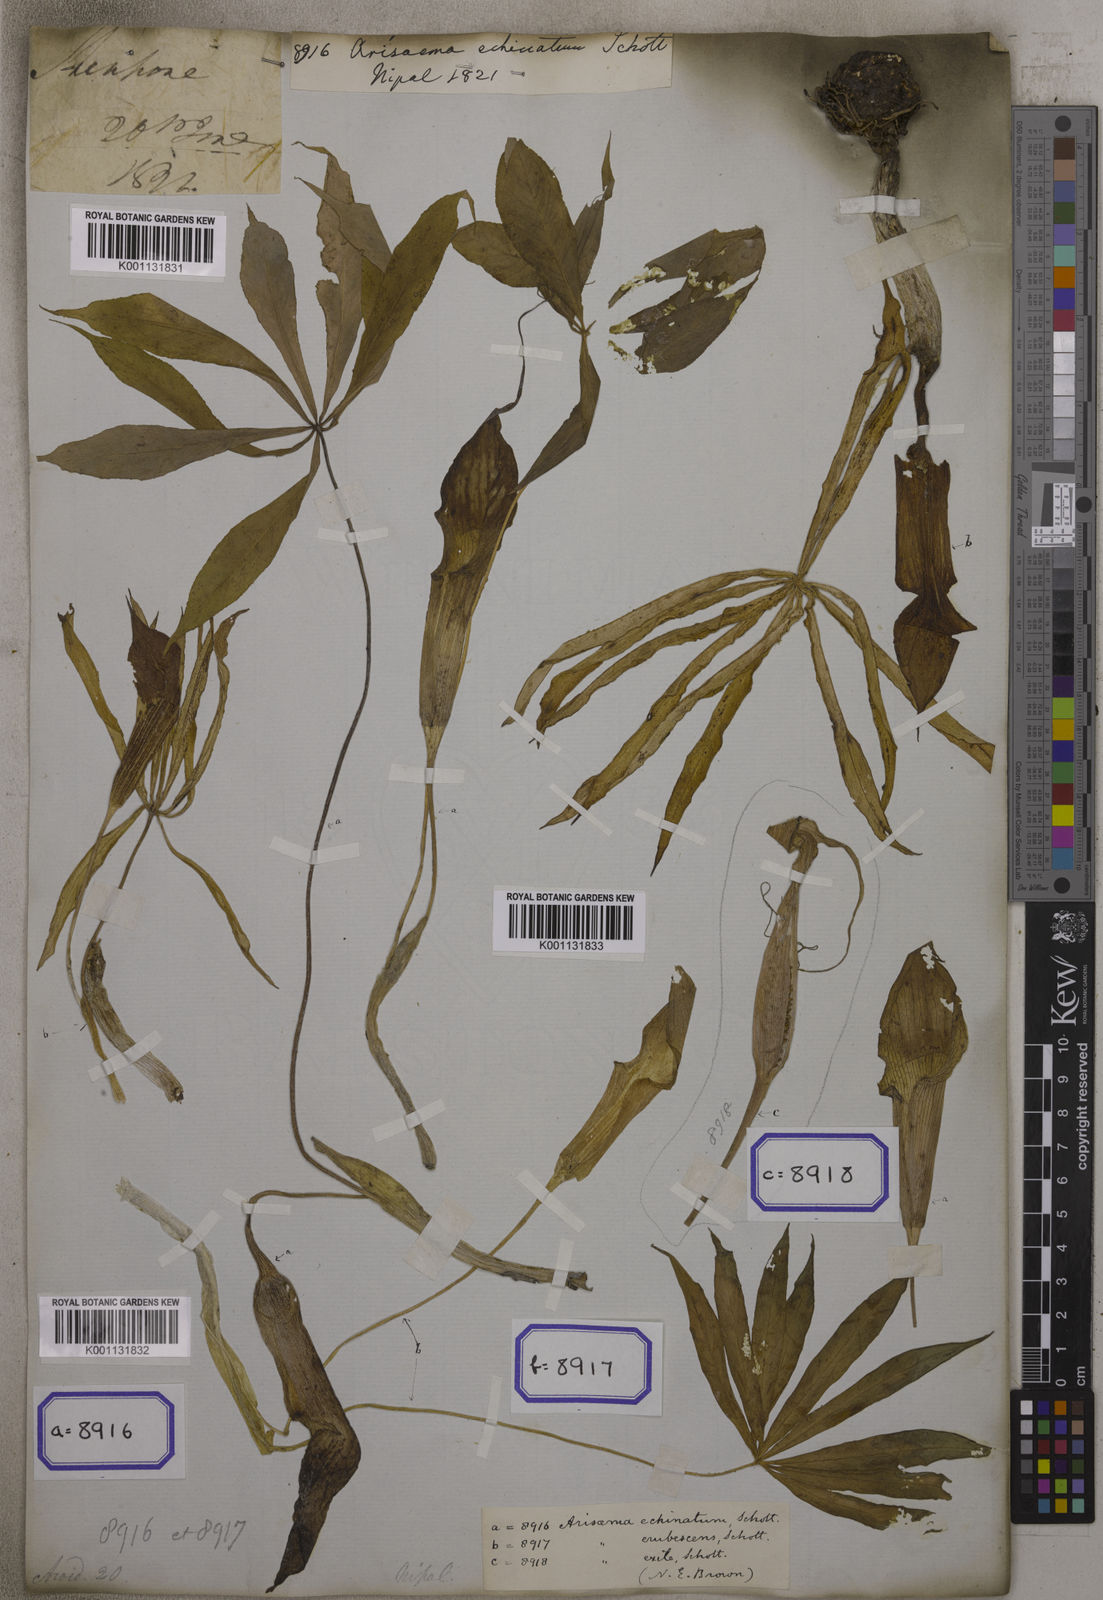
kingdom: Plantae
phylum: Tracheophyta
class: Liliopsida
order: Alismatales
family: Araceae
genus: Arisaema
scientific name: Arisaema
